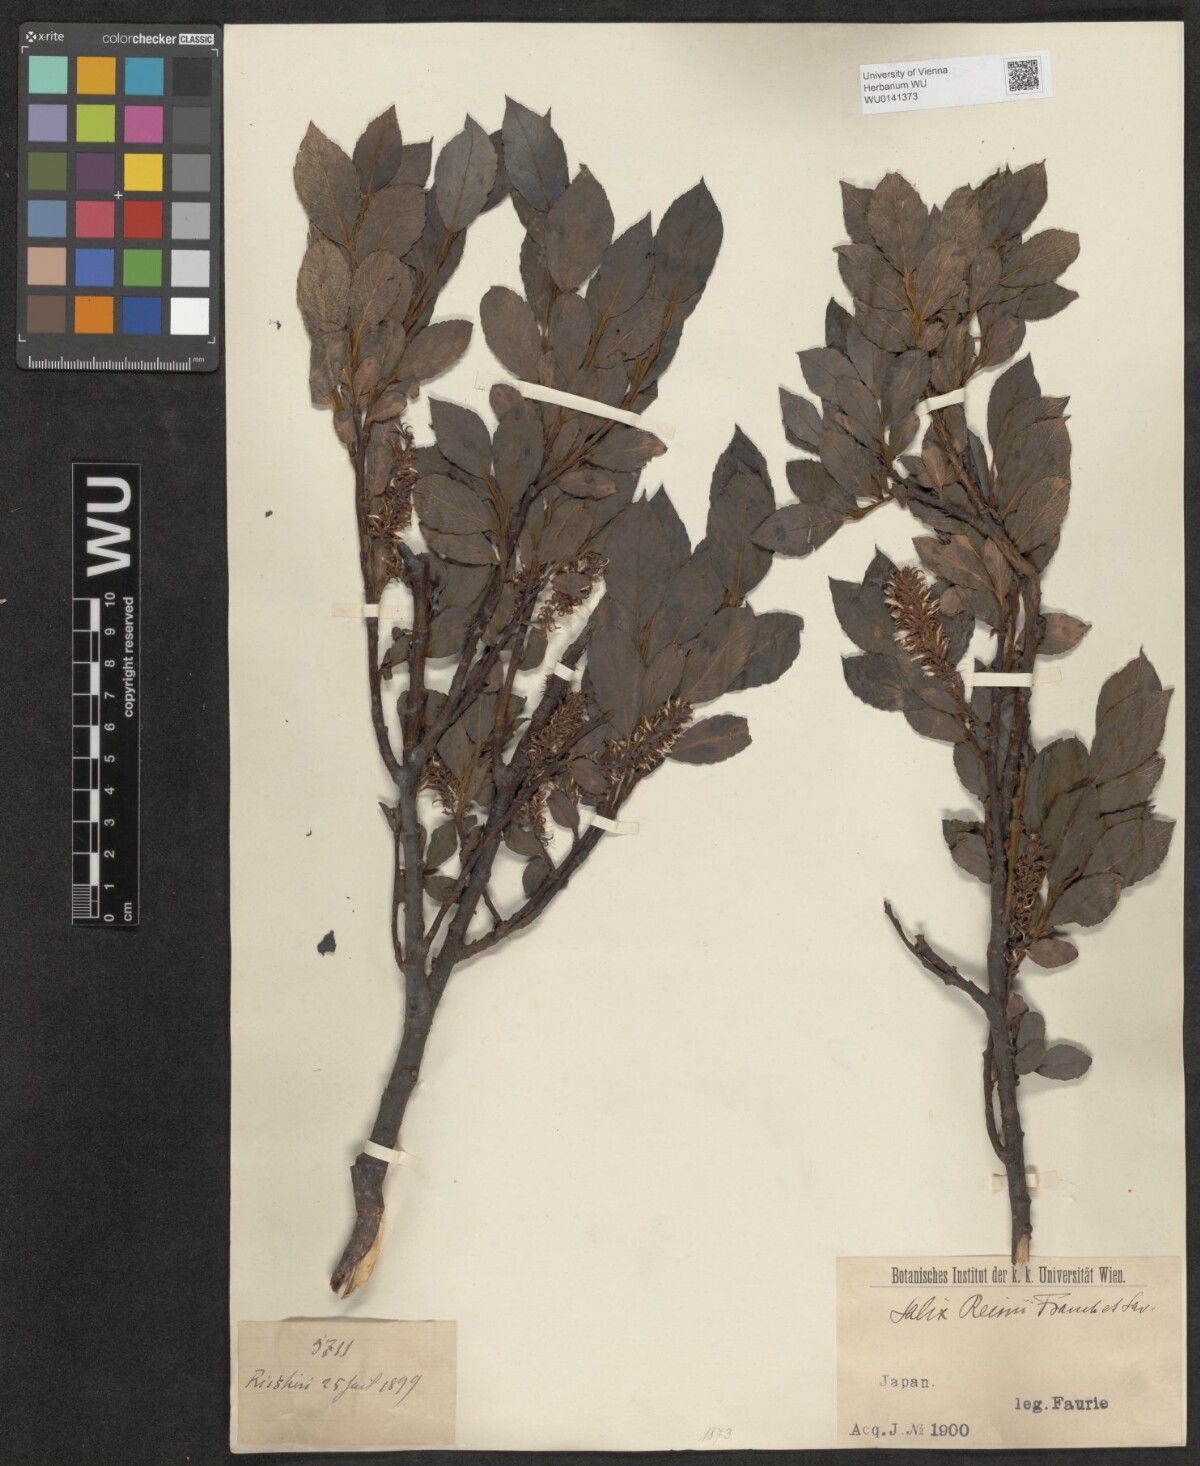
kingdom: Plantae
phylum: Tracheophyta
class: Magnoliopsida
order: Malpighiales
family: Salicaceae
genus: Salix
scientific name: Salix reinii
